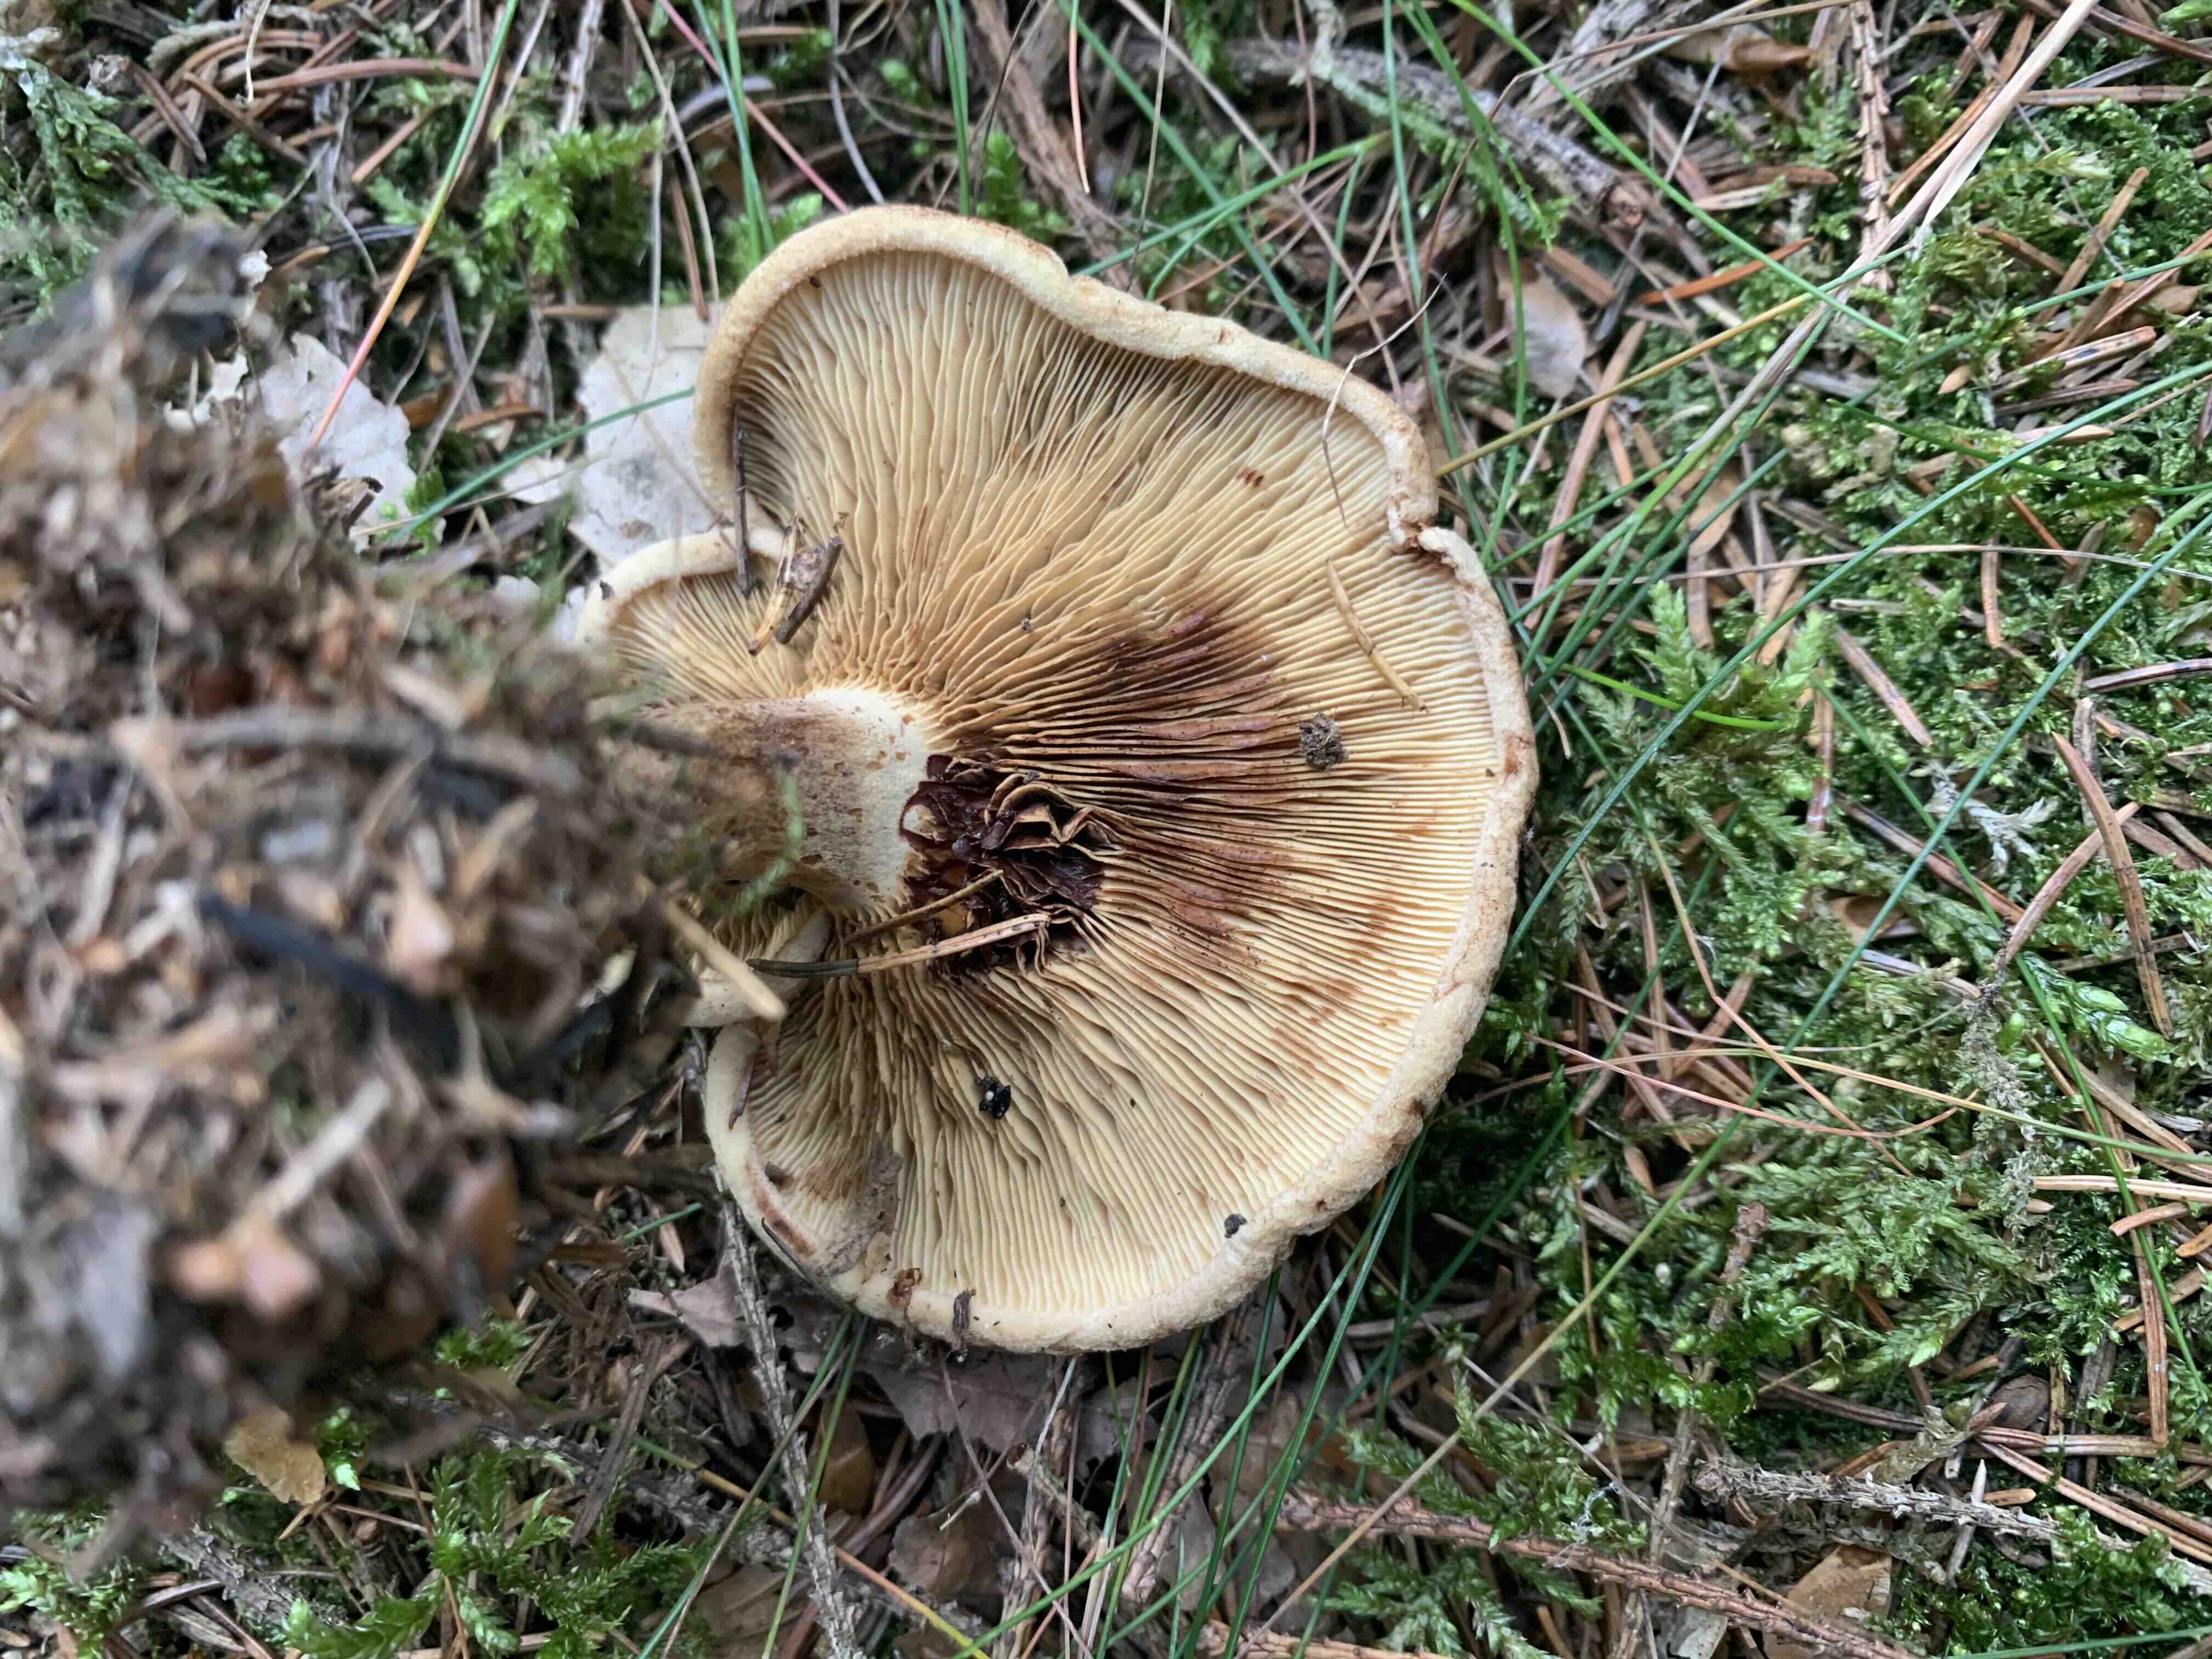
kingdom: Fungi
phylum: Basidiomycota
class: Agaricomycetes
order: Boletales
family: Paxillaceae
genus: Paxillus
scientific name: Paxillus involutus
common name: almindelig netbladhat
